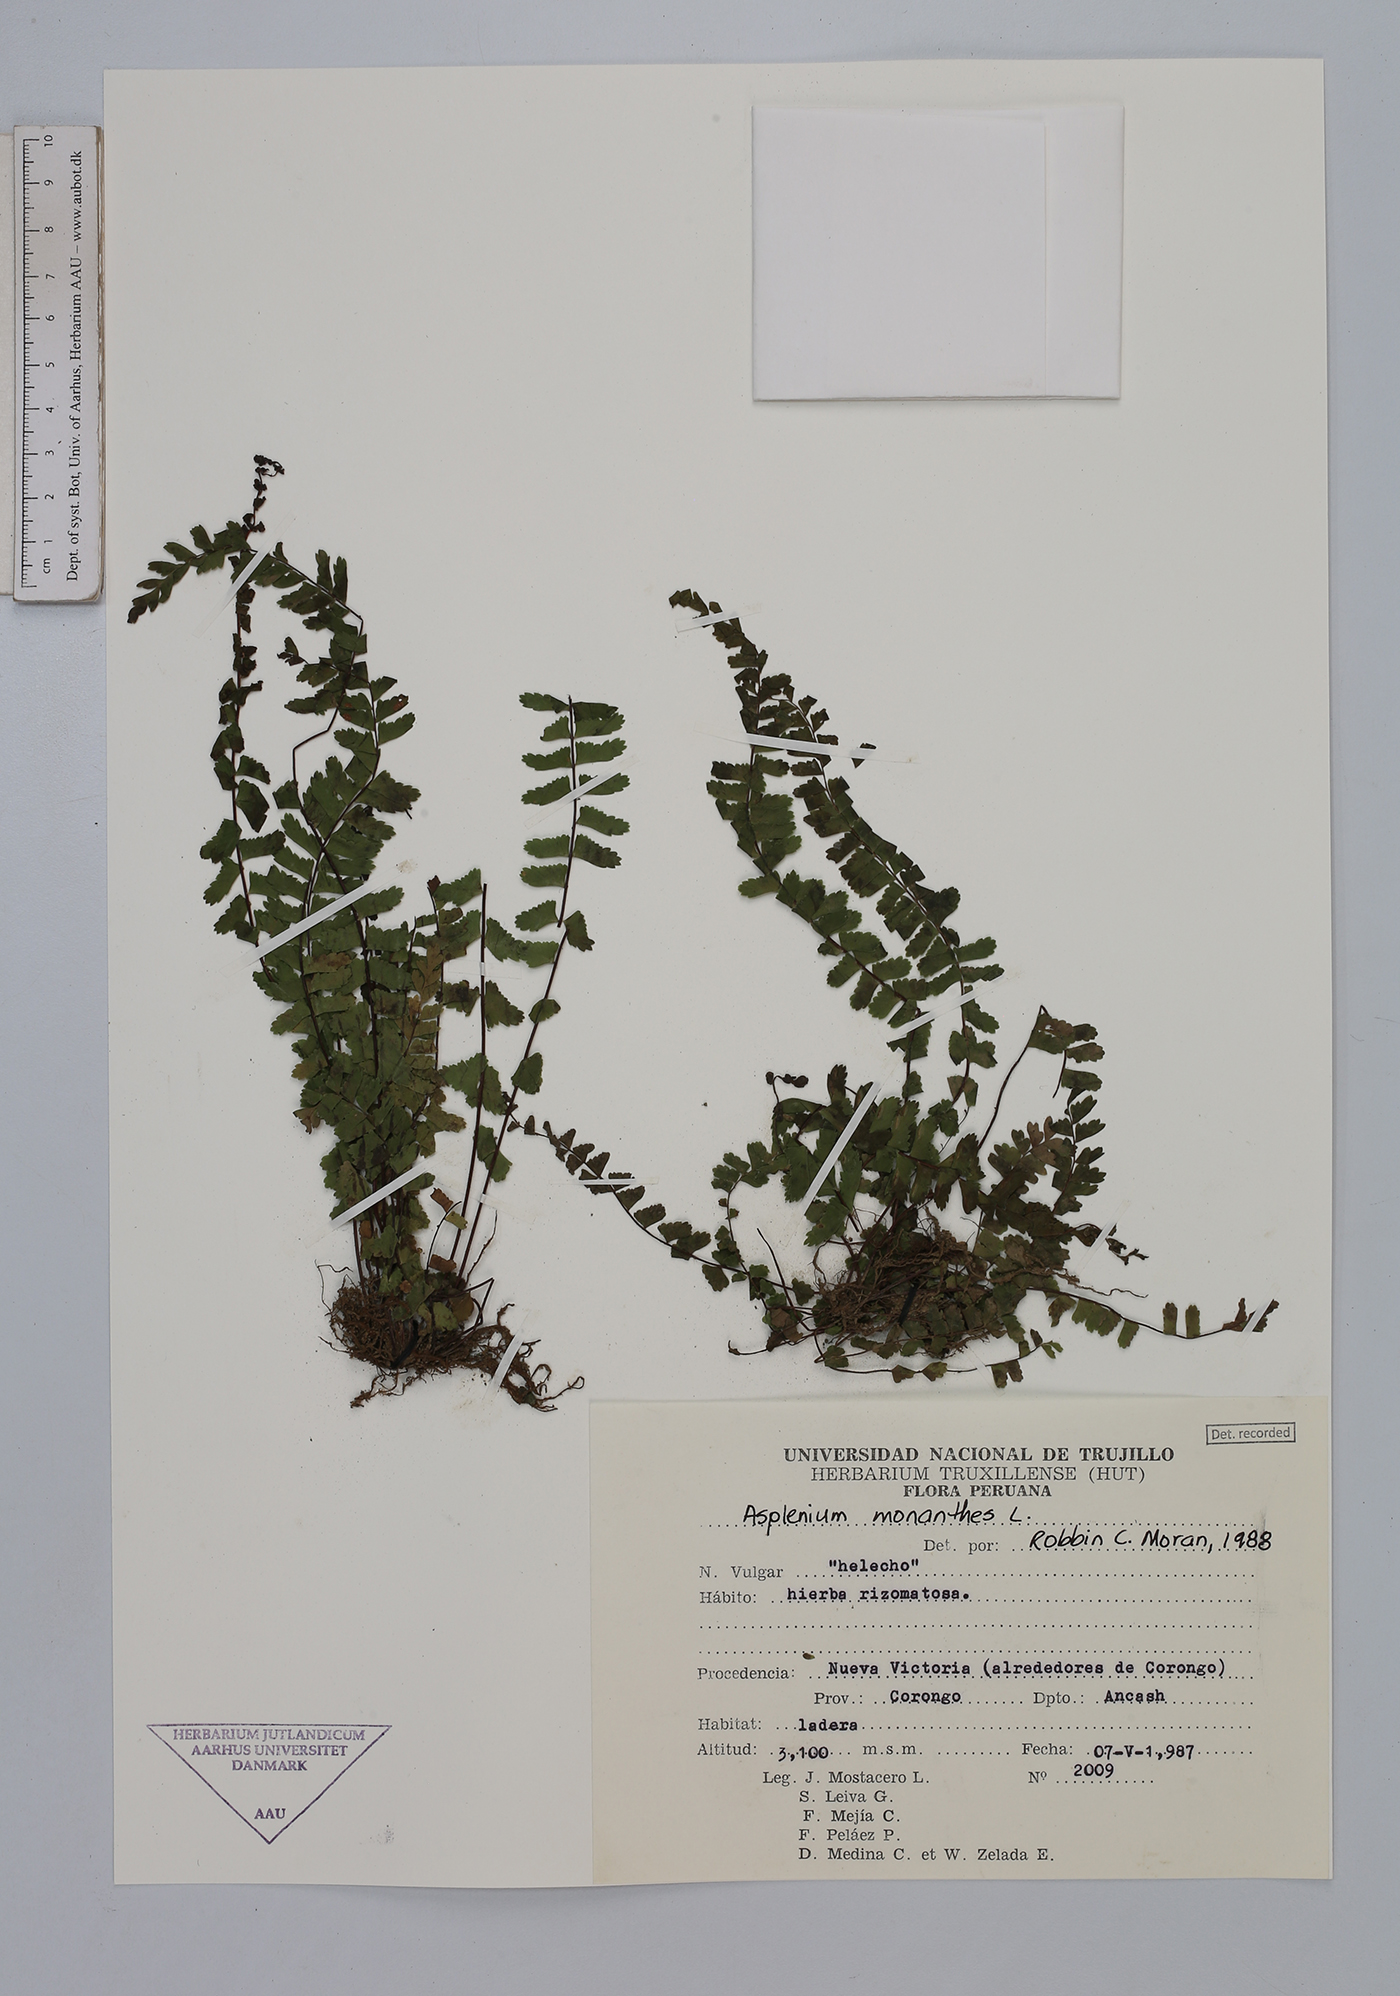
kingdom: Plantae
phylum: Tracheophyta
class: Polypodiopsida
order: Polypodiales
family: Aspleniaceae
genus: Asplenium
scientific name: Asplenium monanthes
